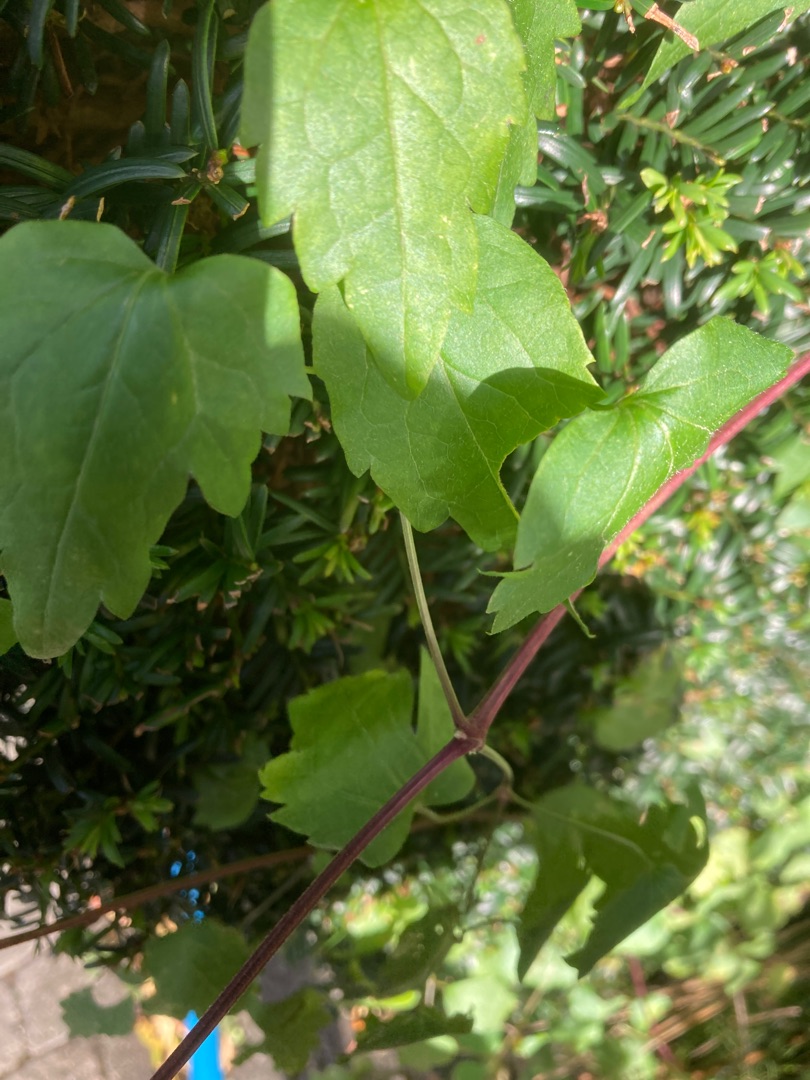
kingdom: Plantae
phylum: Tracheophyta
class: Magnoliopsida
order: Ranunculales
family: Ranunculaceae
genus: Clematis
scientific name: Clematis vitalba
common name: Skovranke
